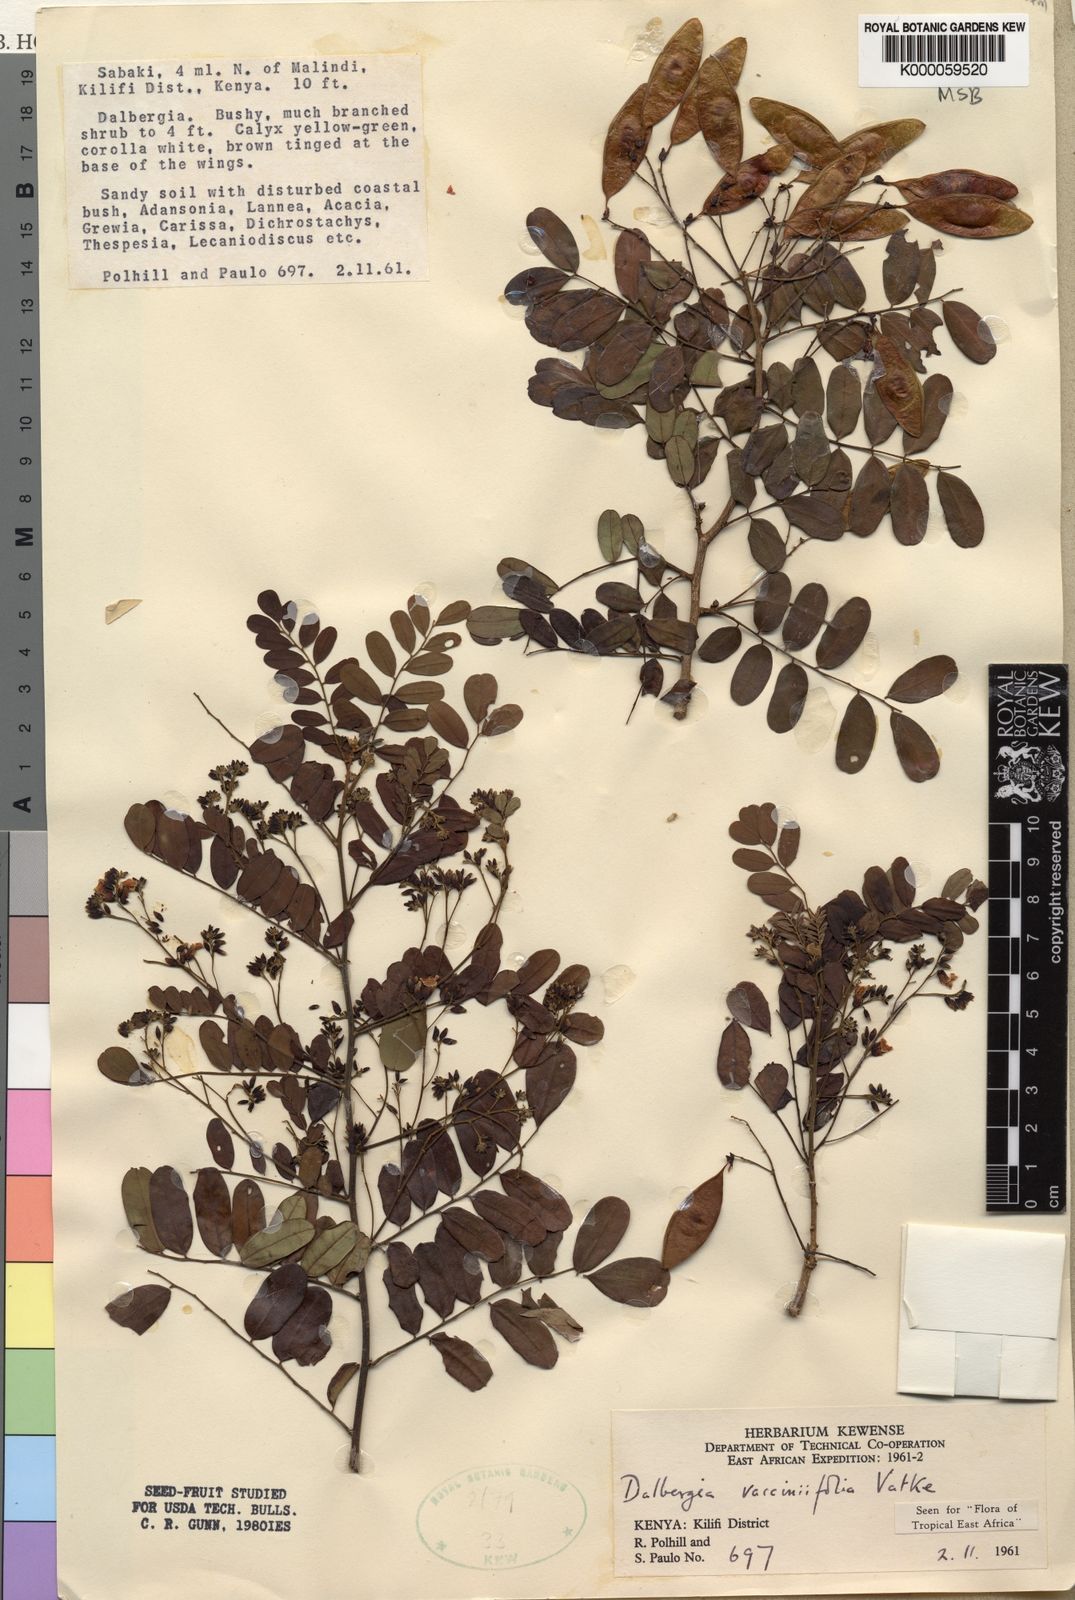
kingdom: Plantae
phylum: Tracheophyta
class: Magnoliopsida
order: Fabales
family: Fabaceae
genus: Dalbergia
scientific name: Dalbergia vacciniifolia
